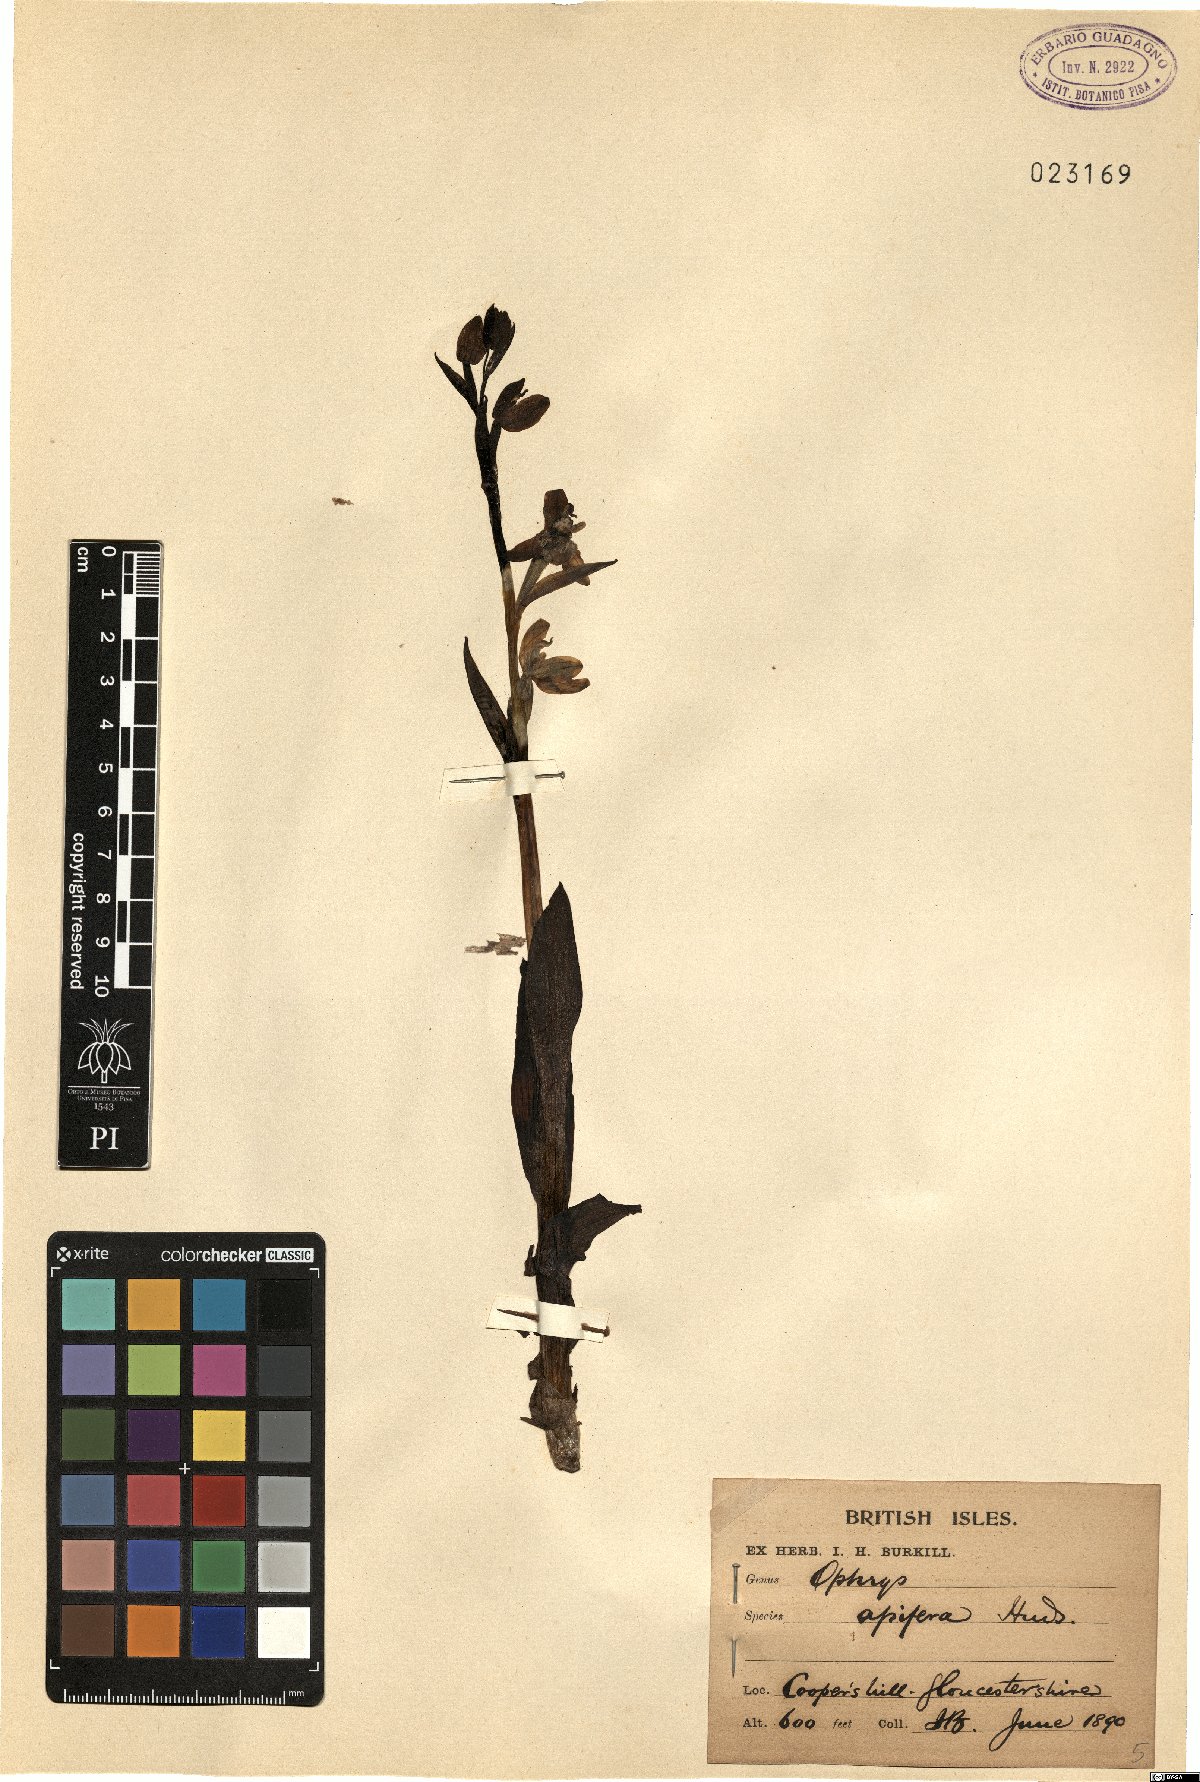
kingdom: Plantae
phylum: Tracheophyta
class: Liliopsida
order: Asparagales
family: Orchidaceae
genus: Ophrys
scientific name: Ophrys apifera
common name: Bee orchid
